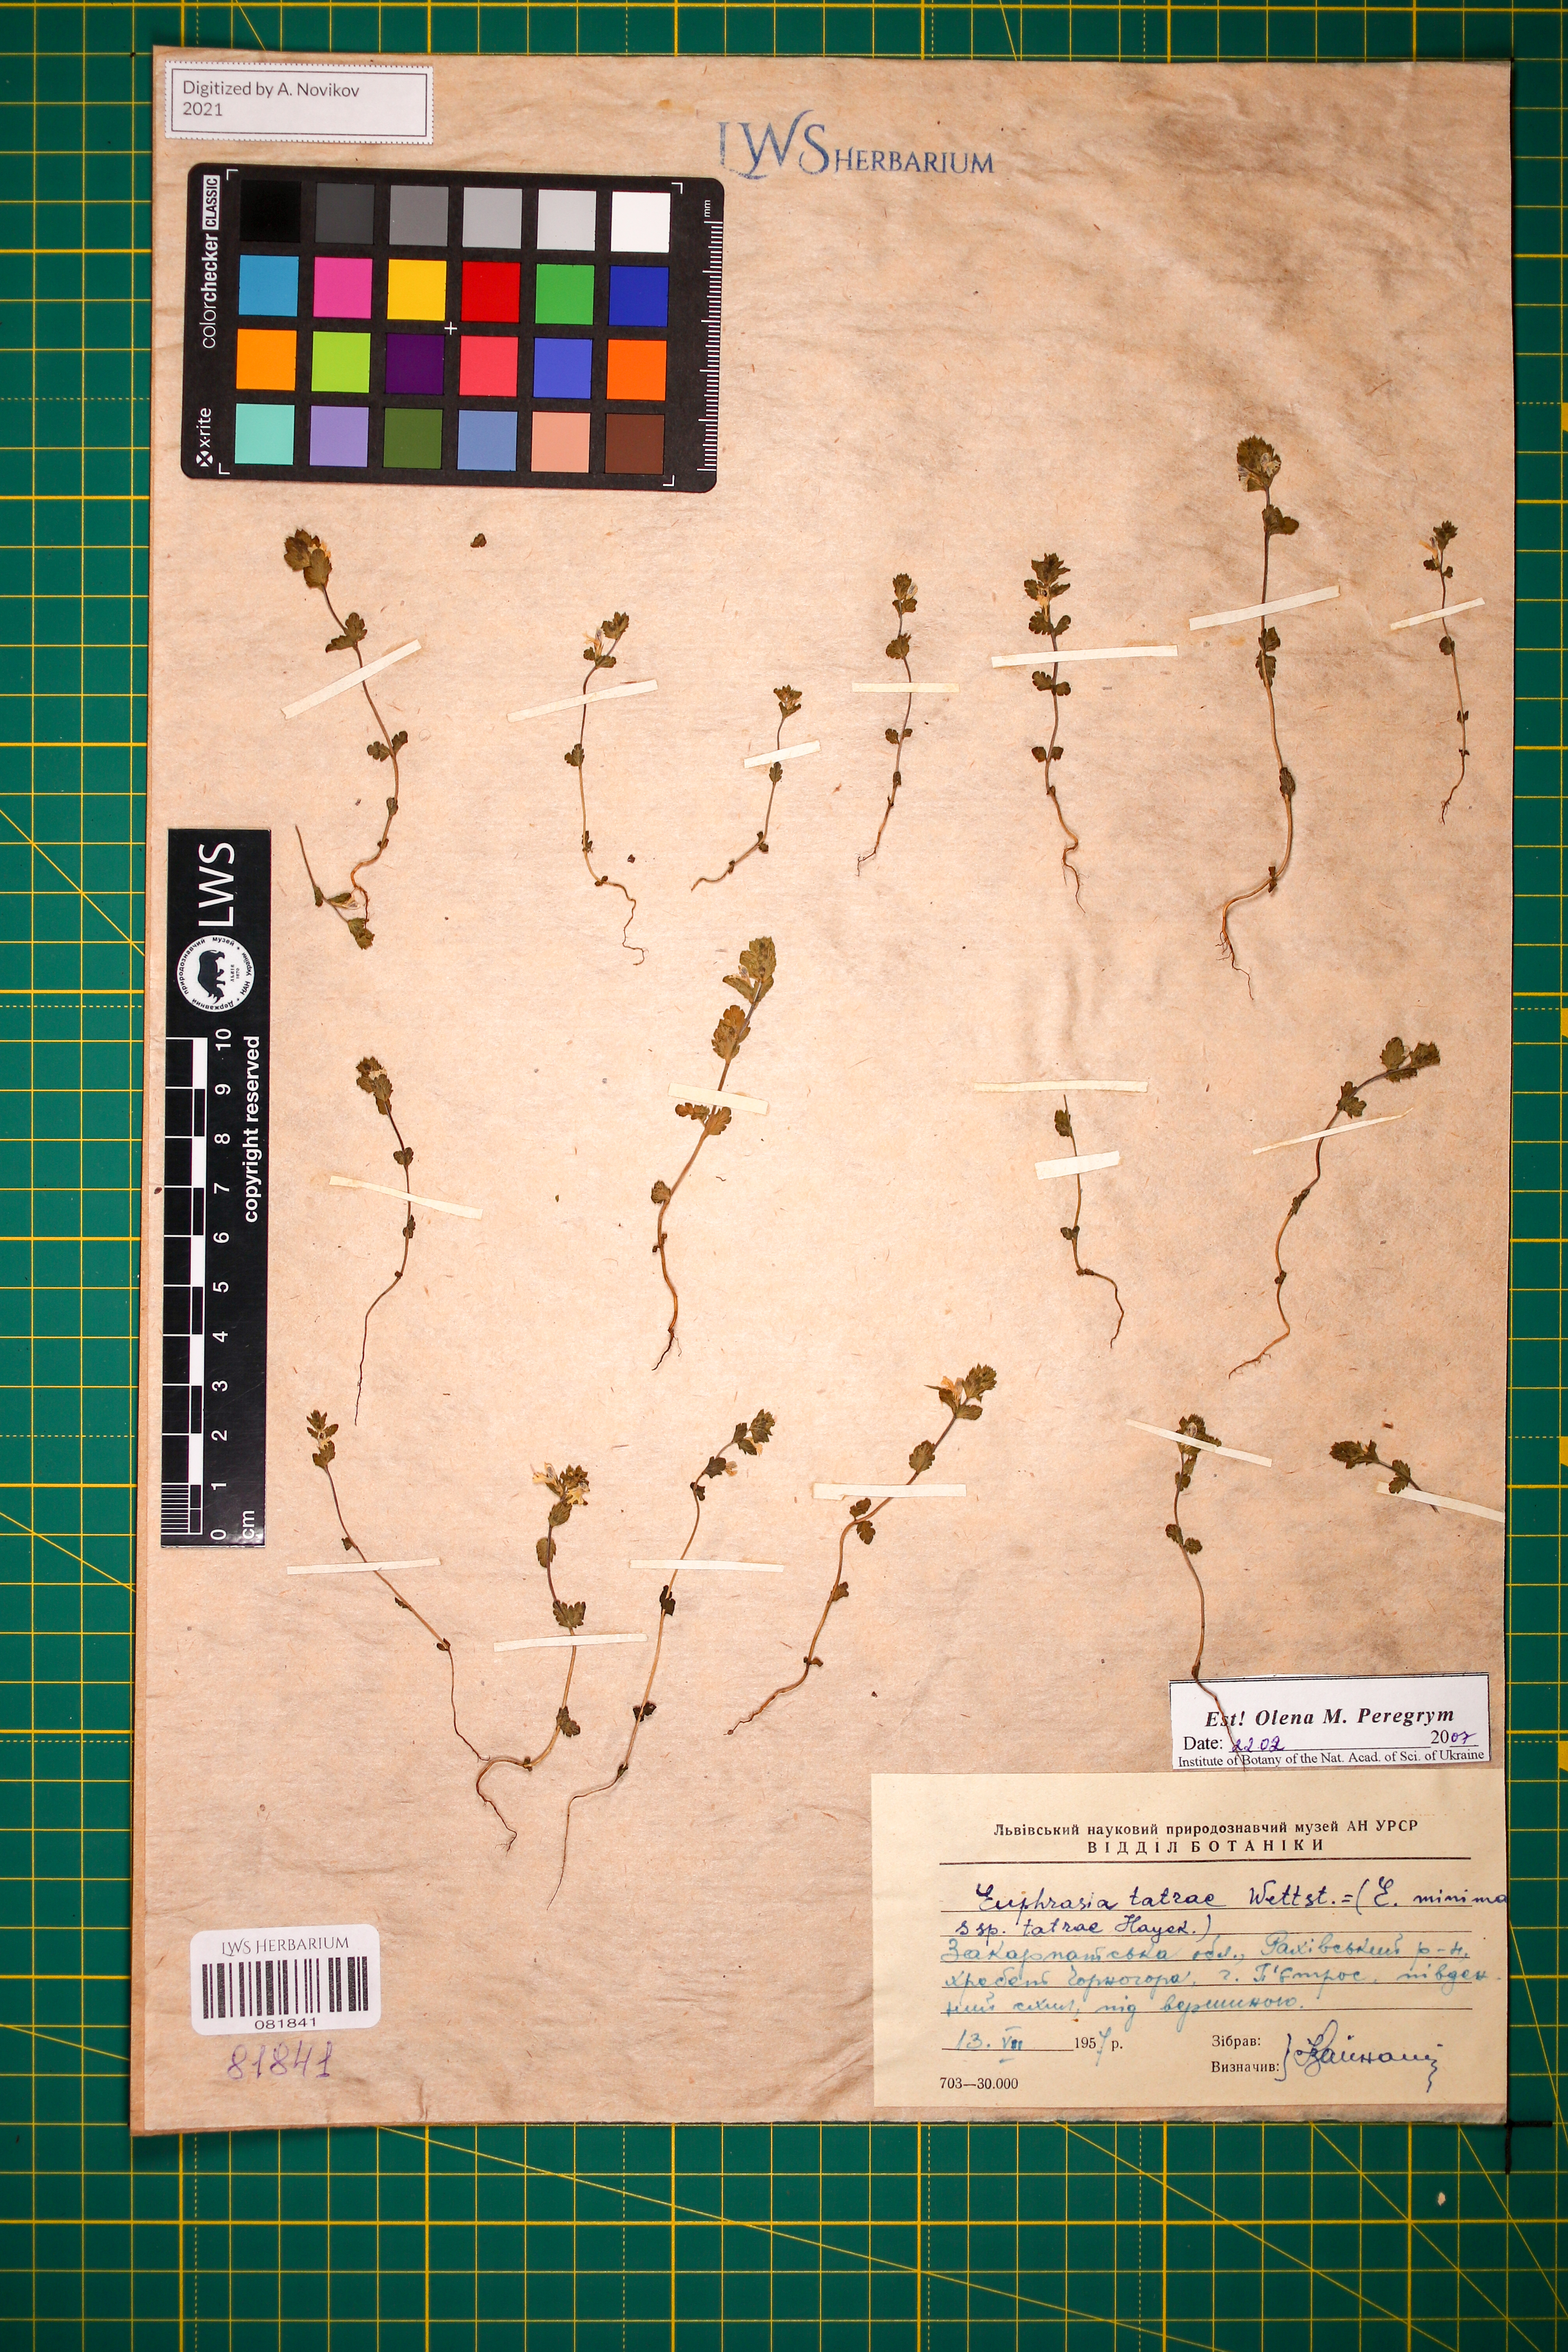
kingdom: Plantae
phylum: Tracheophyta
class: Magnoliopsida
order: Lamiales
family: Orobanchaceae
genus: Euphrasia
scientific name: Euphrasia tatrae
